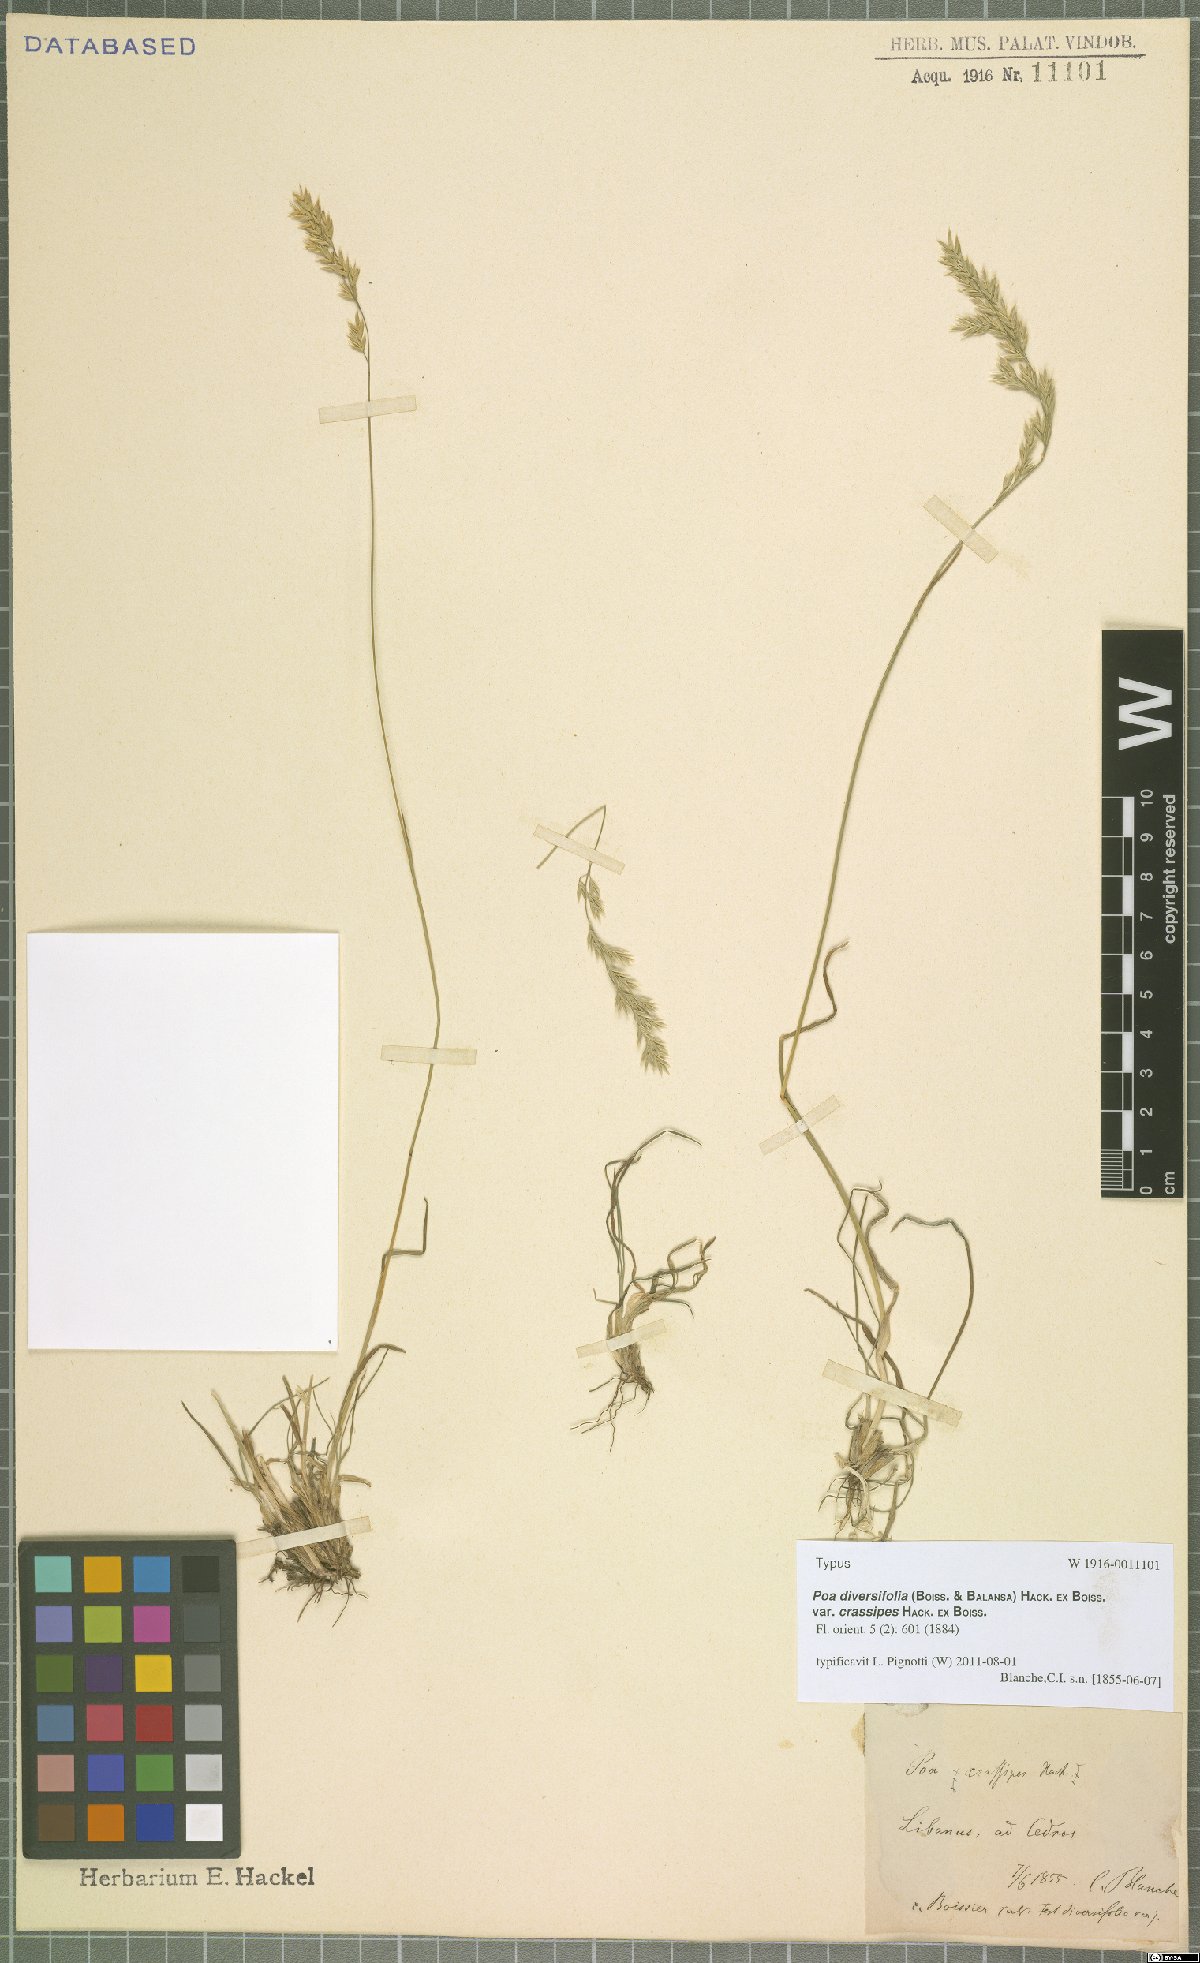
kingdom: Plantae
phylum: Tracheophyta
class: Liliopsida
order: Poales
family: Poaceae
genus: Poa
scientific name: Poa diversifolia
